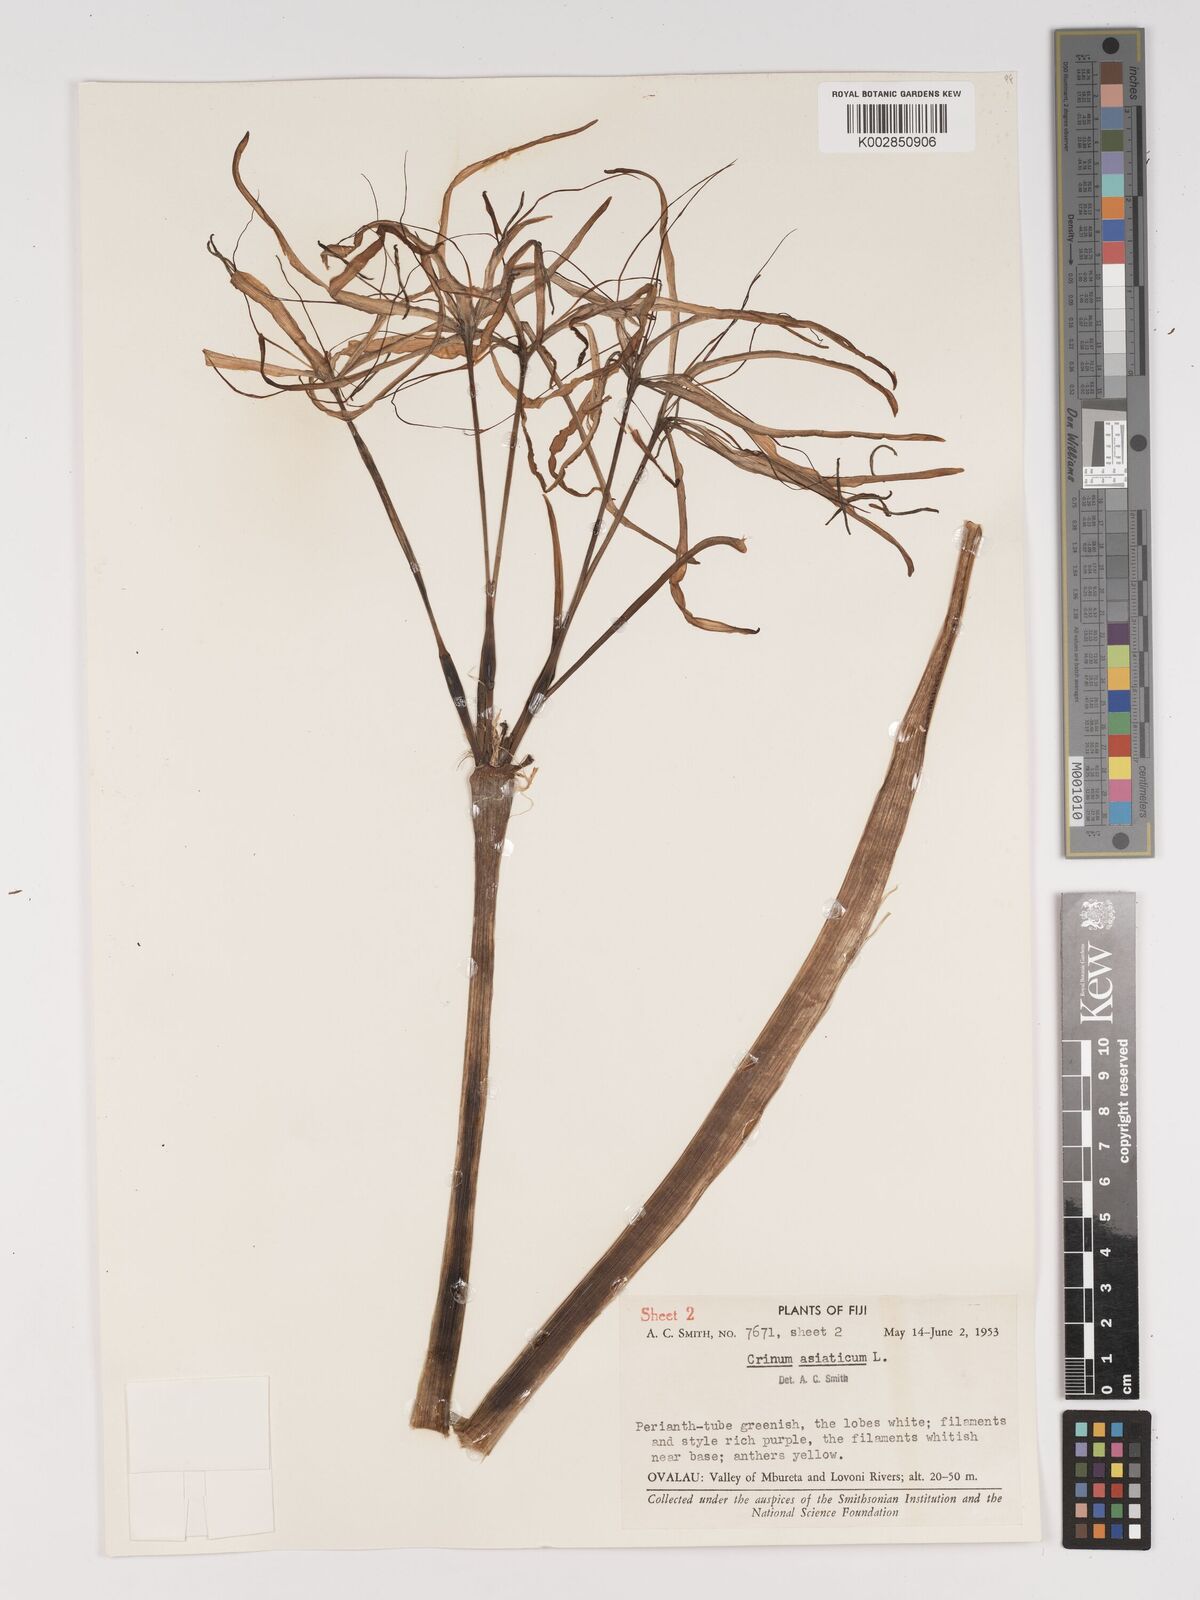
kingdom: Plantae
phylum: Tracheophyta
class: Liliopsida
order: Asparagales
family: Amaryllidaceae
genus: Crinum
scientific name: Crinum asiaticum
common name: Poisonbulb
